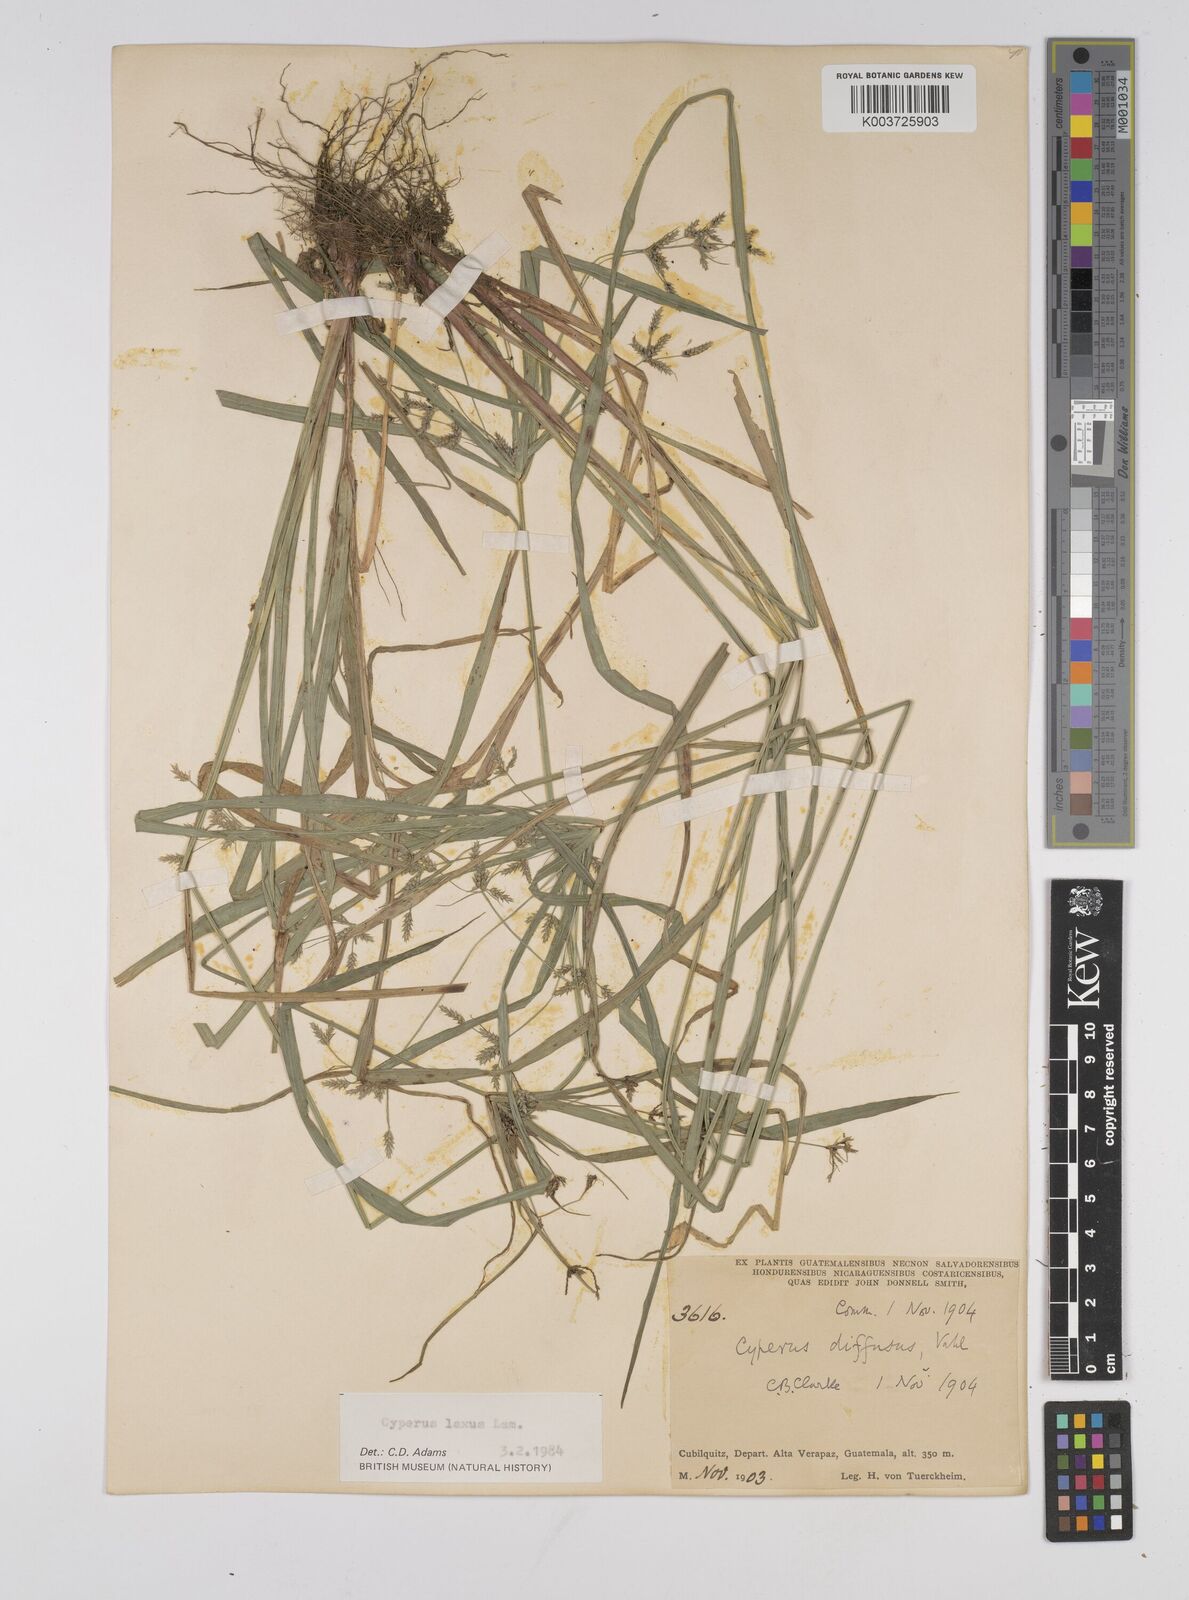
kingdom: Plantae
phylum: Tracheophyta
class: Liliopsida
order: Poales
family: Cyperaceae
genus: Cyperus
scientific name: Cyperus chalaranthus
